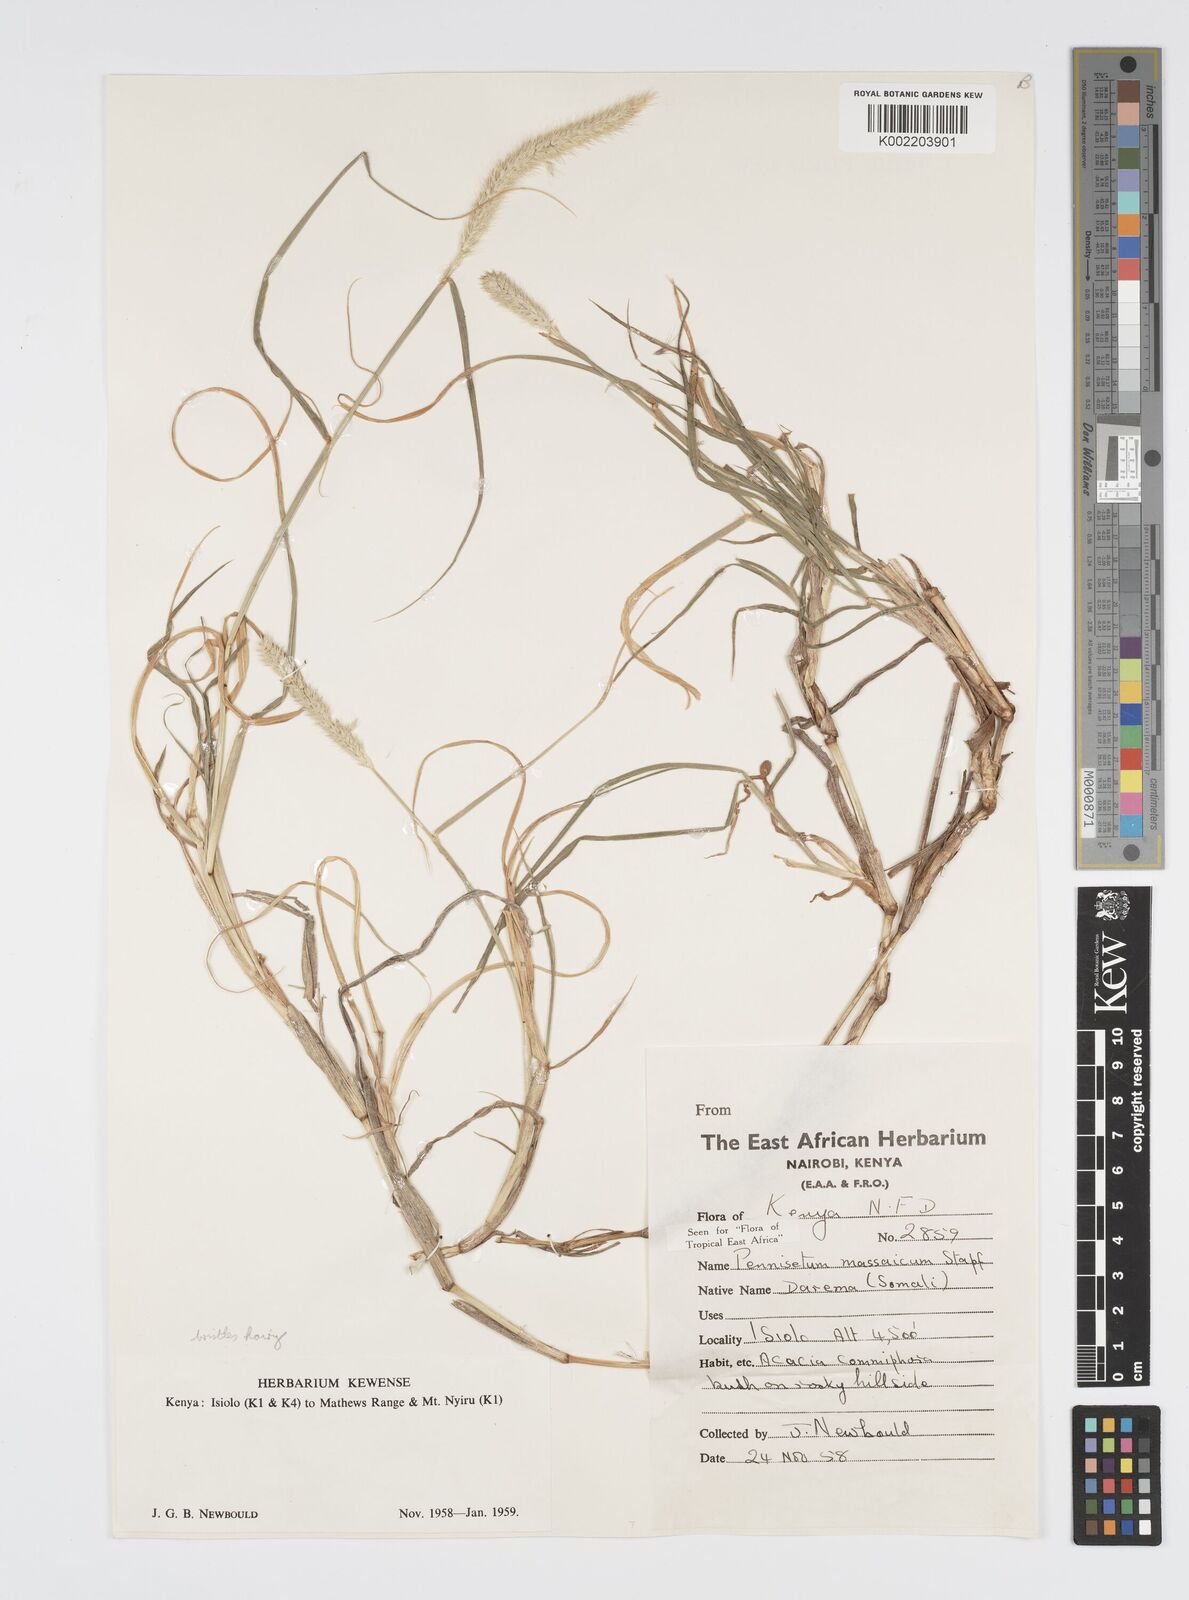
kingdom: Plantae
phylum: Tracheophyta
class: Liliopsida
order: Poales
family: Poaceae
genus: Cenchrus
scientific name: Cenchrus massaicus
